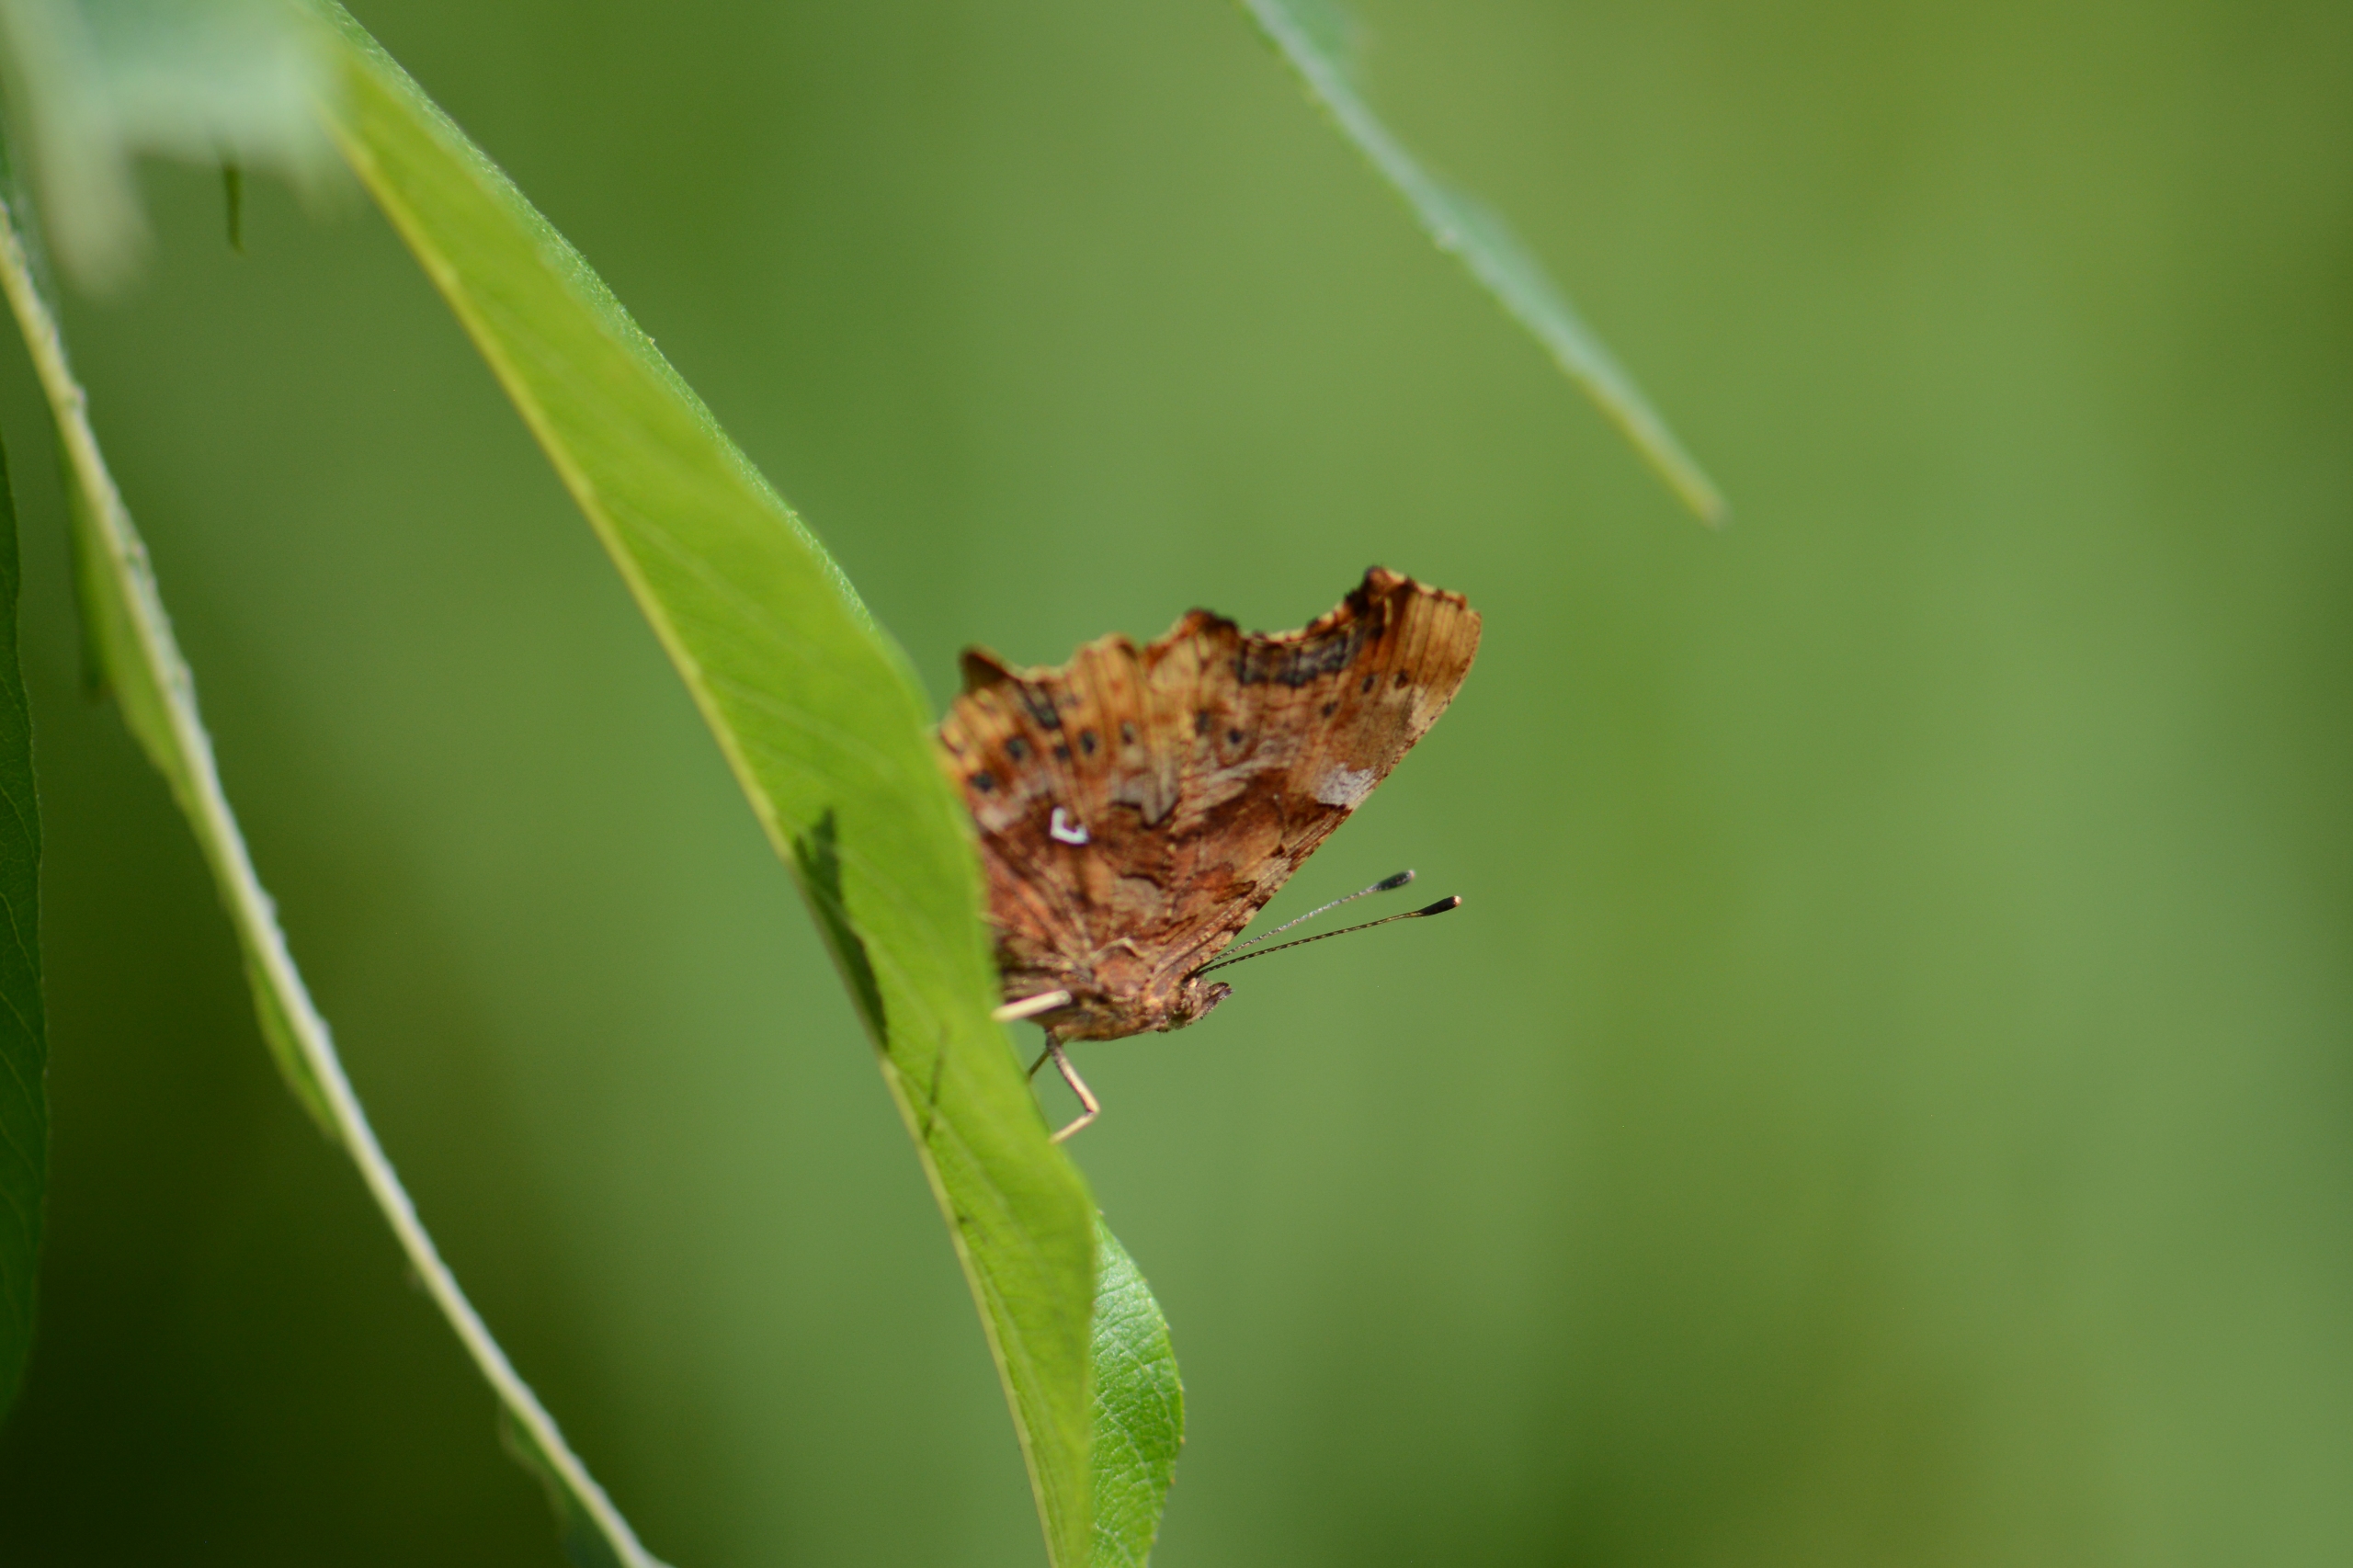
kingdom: Animalia
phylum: Arthropoda
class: Insecta
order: Lepidoptera
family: Nymphalidae
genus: Polygonia
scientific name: Polygonia c-album
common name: Det hvide C
